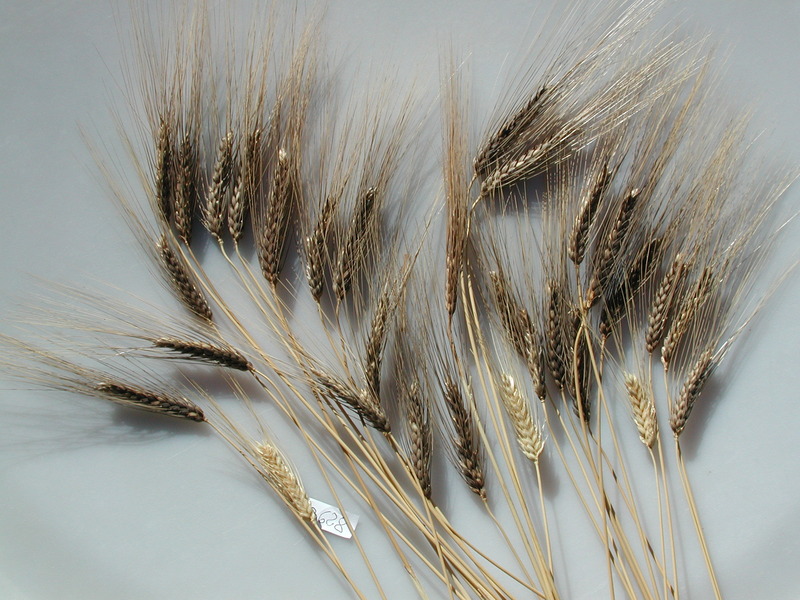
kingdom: Plantae
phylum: Tracheophyta
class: Liliopsida
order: Poales
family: Poaceae
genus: Triticum
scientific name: Triticum turgidum
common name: Wheat
